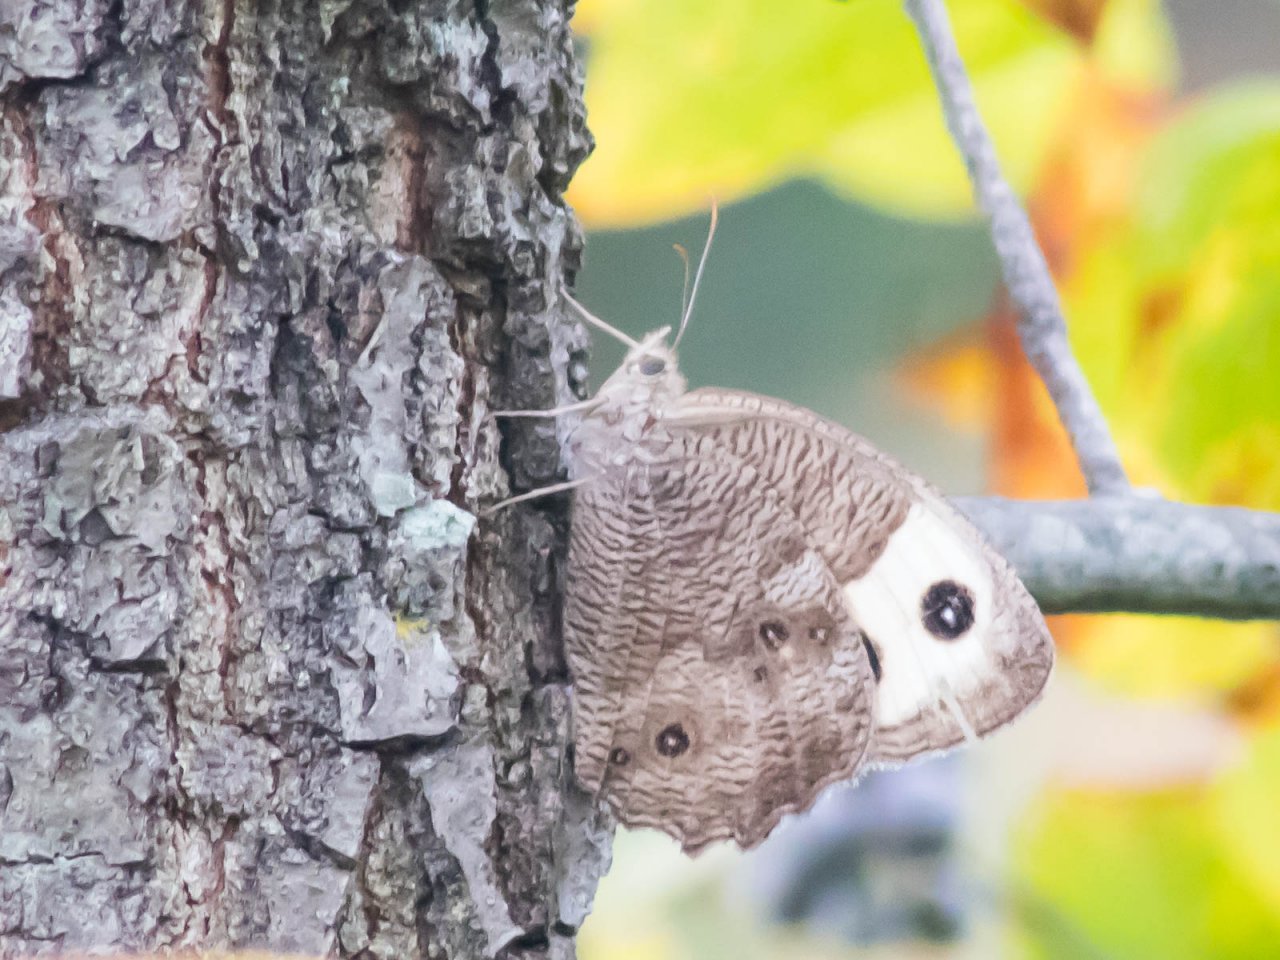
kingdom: Animalia
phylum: Arthropoda
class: Insecta
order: Lepidoptera
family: Nymphalidae
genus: Cercyonis
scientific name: Cercyonis pegala
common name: Common Wood-Nymph
